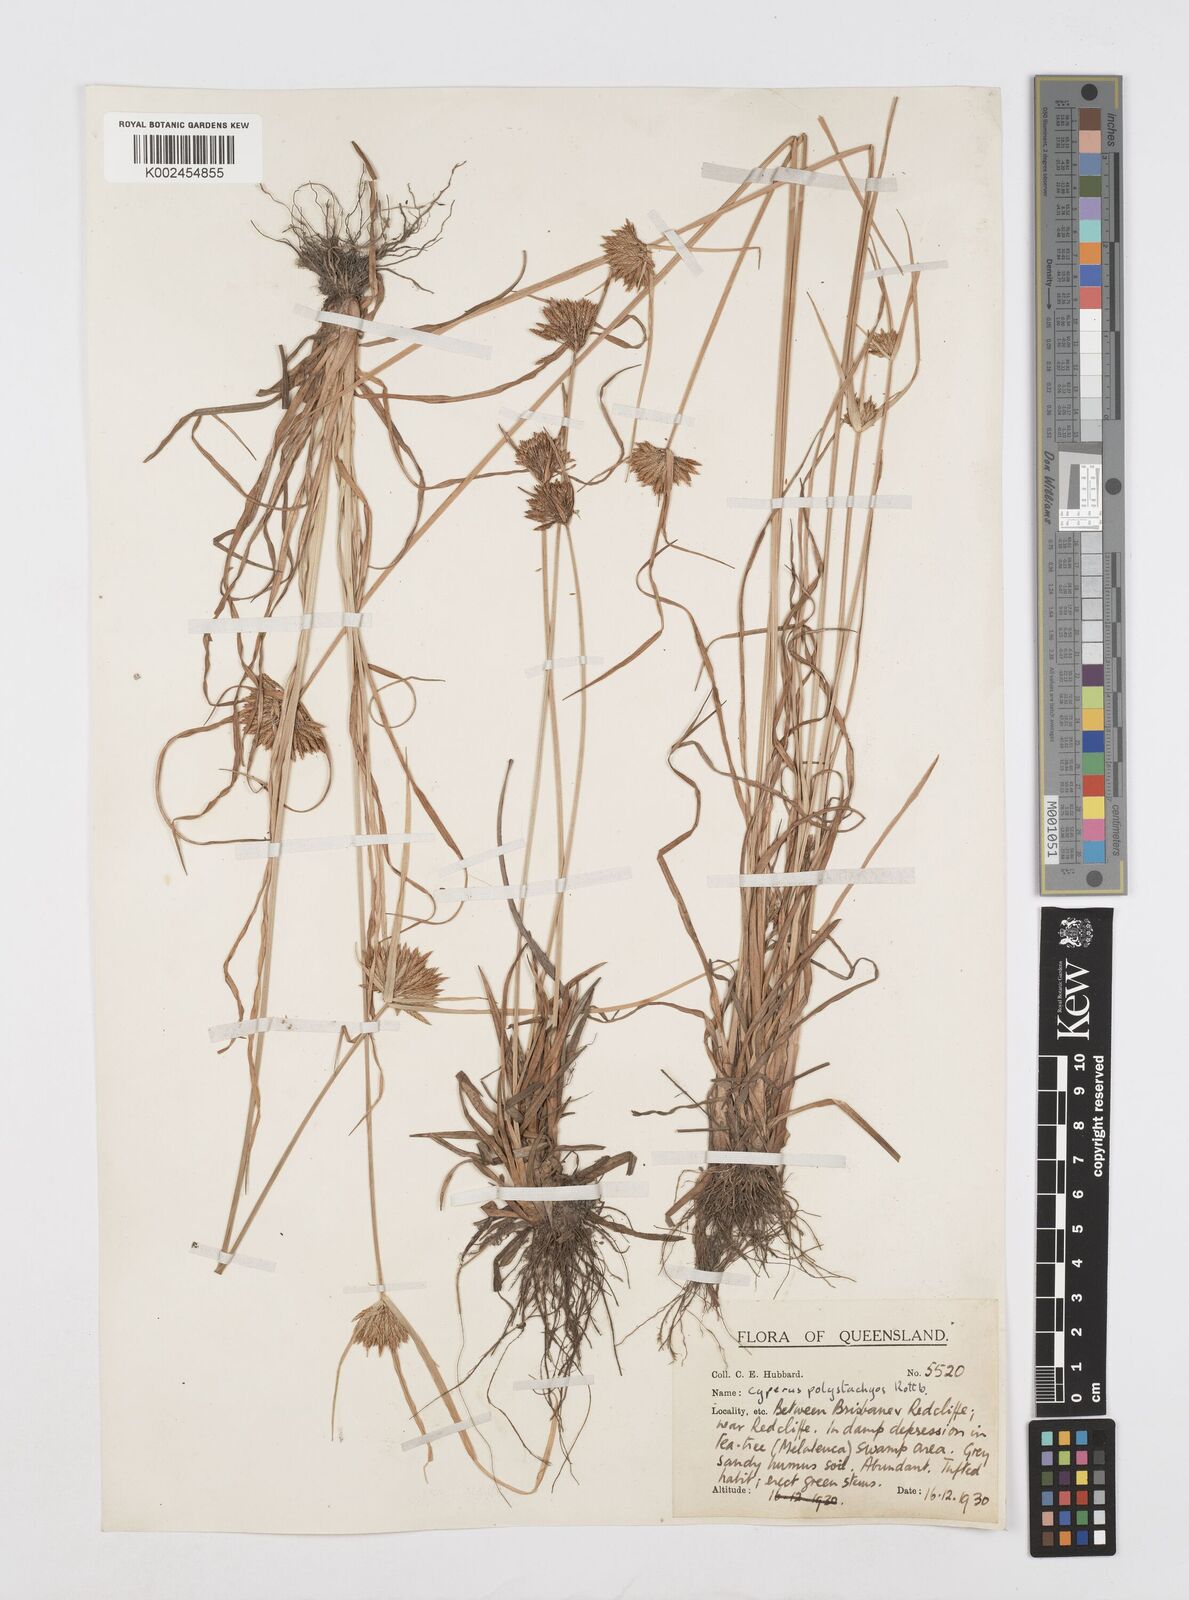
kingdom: Plantae
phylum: Tracheophyta
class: Liliopsida
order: Poales
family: Cyperaceae
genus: Cyperus
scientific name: Cyperus polystachyos
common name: Bunchy flat sedge
